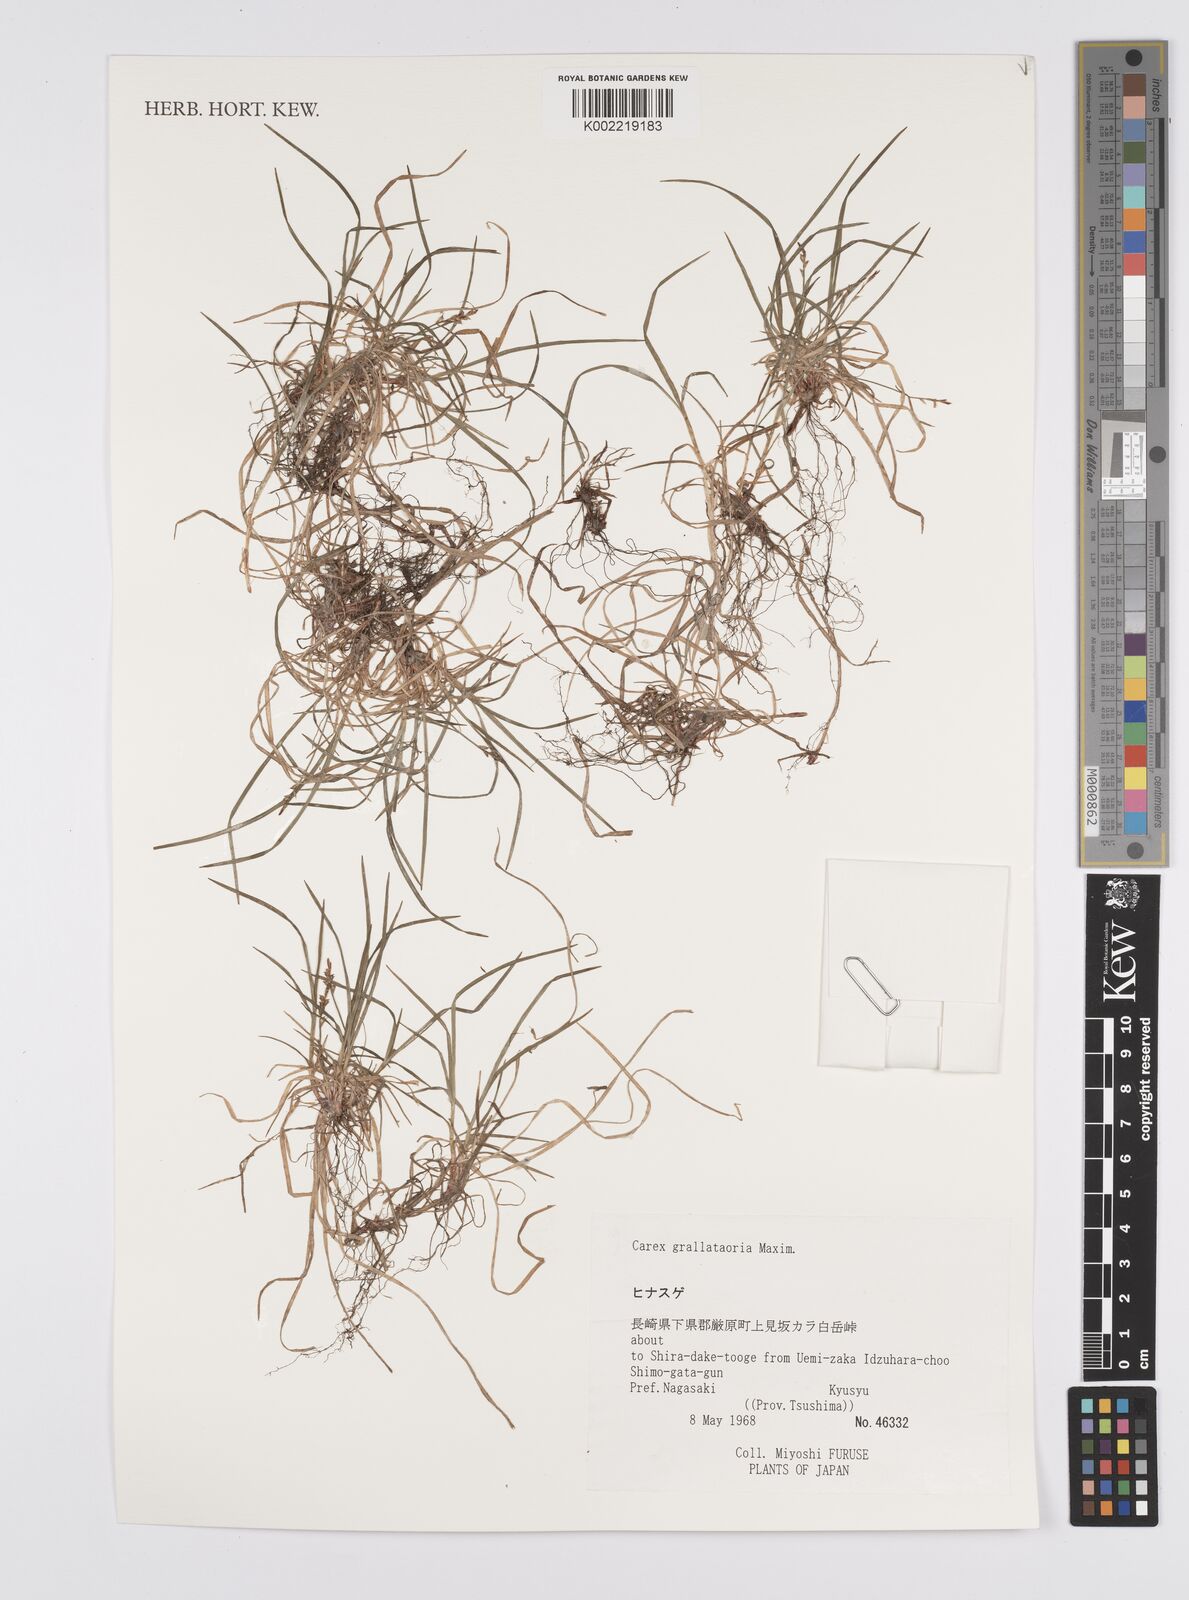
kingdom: Plantae
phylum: Tracheophyta
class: Liliopsida
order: Poales
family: Cyperaceae
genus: Carex
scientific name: Carex grallatoria
